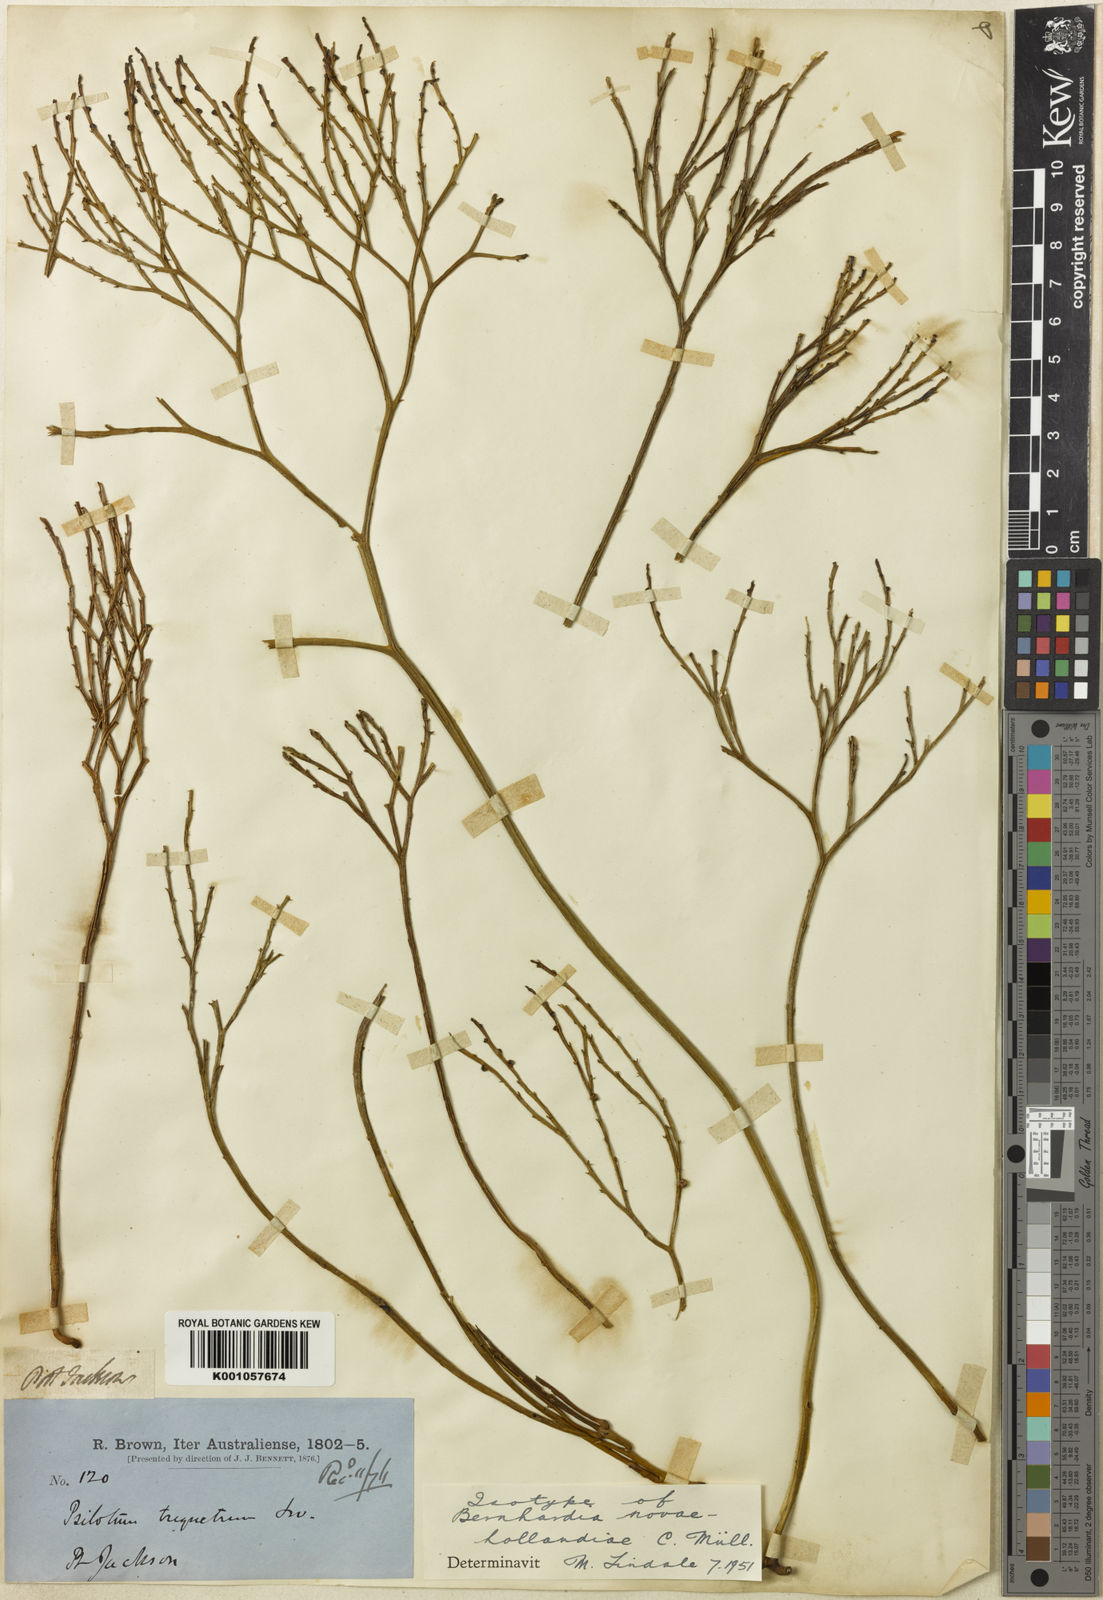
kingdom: Plantae
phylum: Tracheophyta
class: Polypodiopsida
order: Psilotales
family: Psilotaceae
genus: Psilotum
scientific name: Psilotum nudum
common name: Skeleton fork fern
